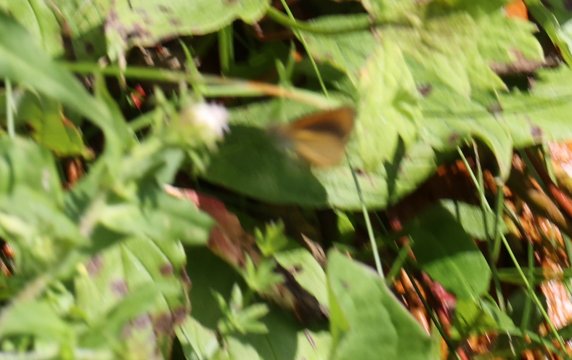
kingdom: Animalia
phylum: Arthropoda
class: Insecta
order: Lepidoptera
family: Hesperiidae
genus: Ancyloxypha
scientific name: Ancyloxypha numitor
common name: Least Skipper
